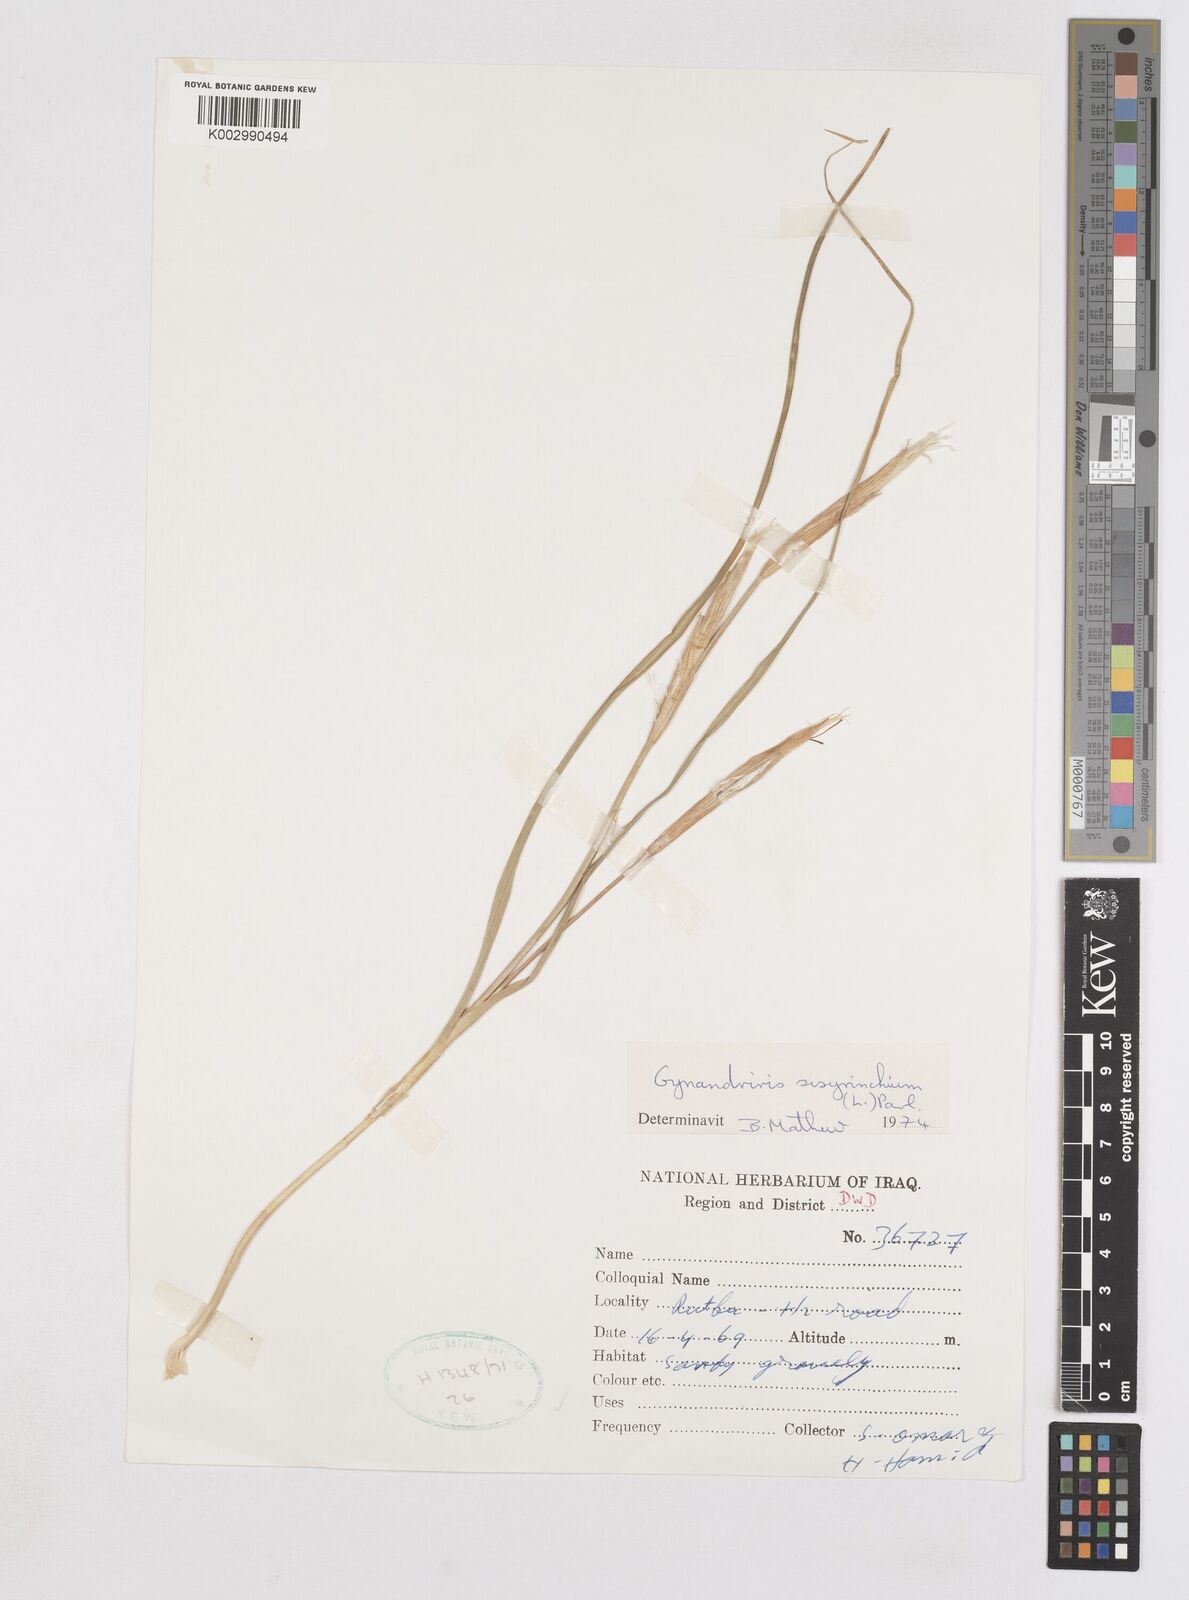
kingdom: Plantae
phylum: Tracheophyta
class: Liliopsida
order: Asparagales
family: Iridaceae
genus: Moraea
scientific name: Moraea sisyrinchium
